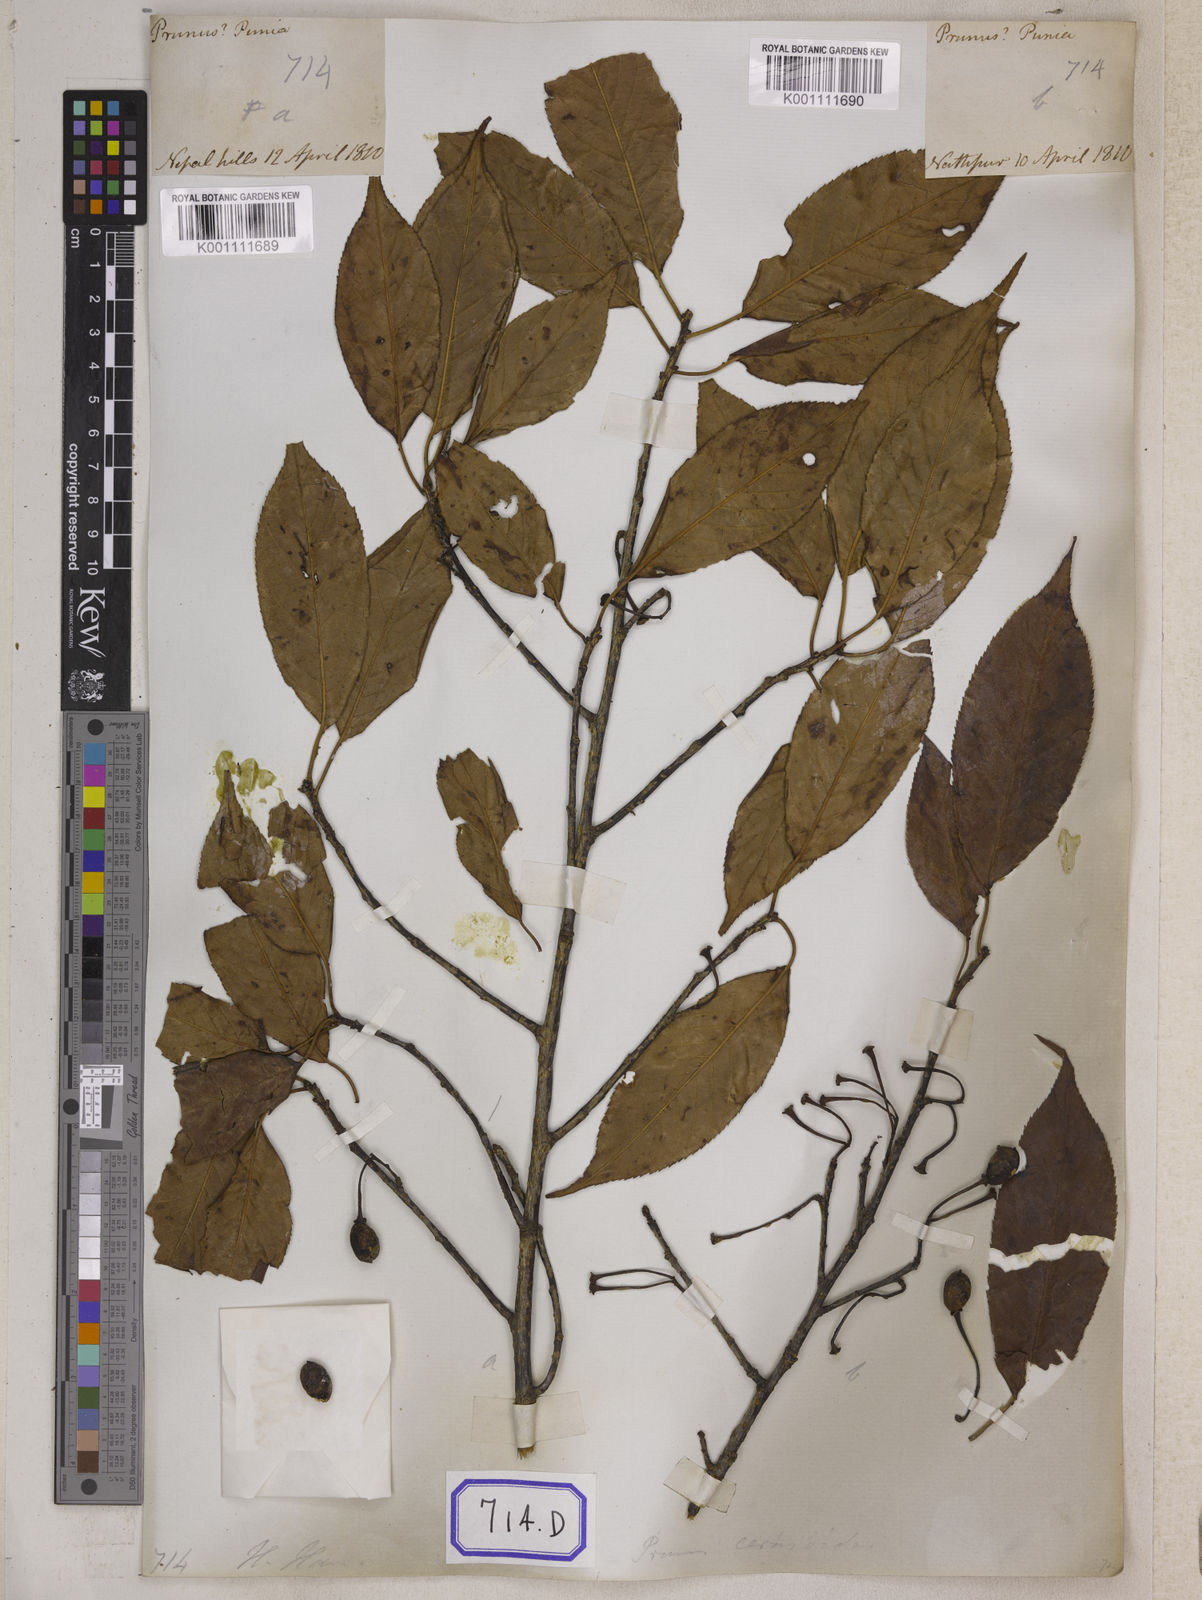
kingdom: Plantae
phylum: Tracheophyta
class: Magnoliopsida
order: Rosales
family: Rosaceae
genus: Prunus
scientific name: Prunus Cerasus myrtifolia
